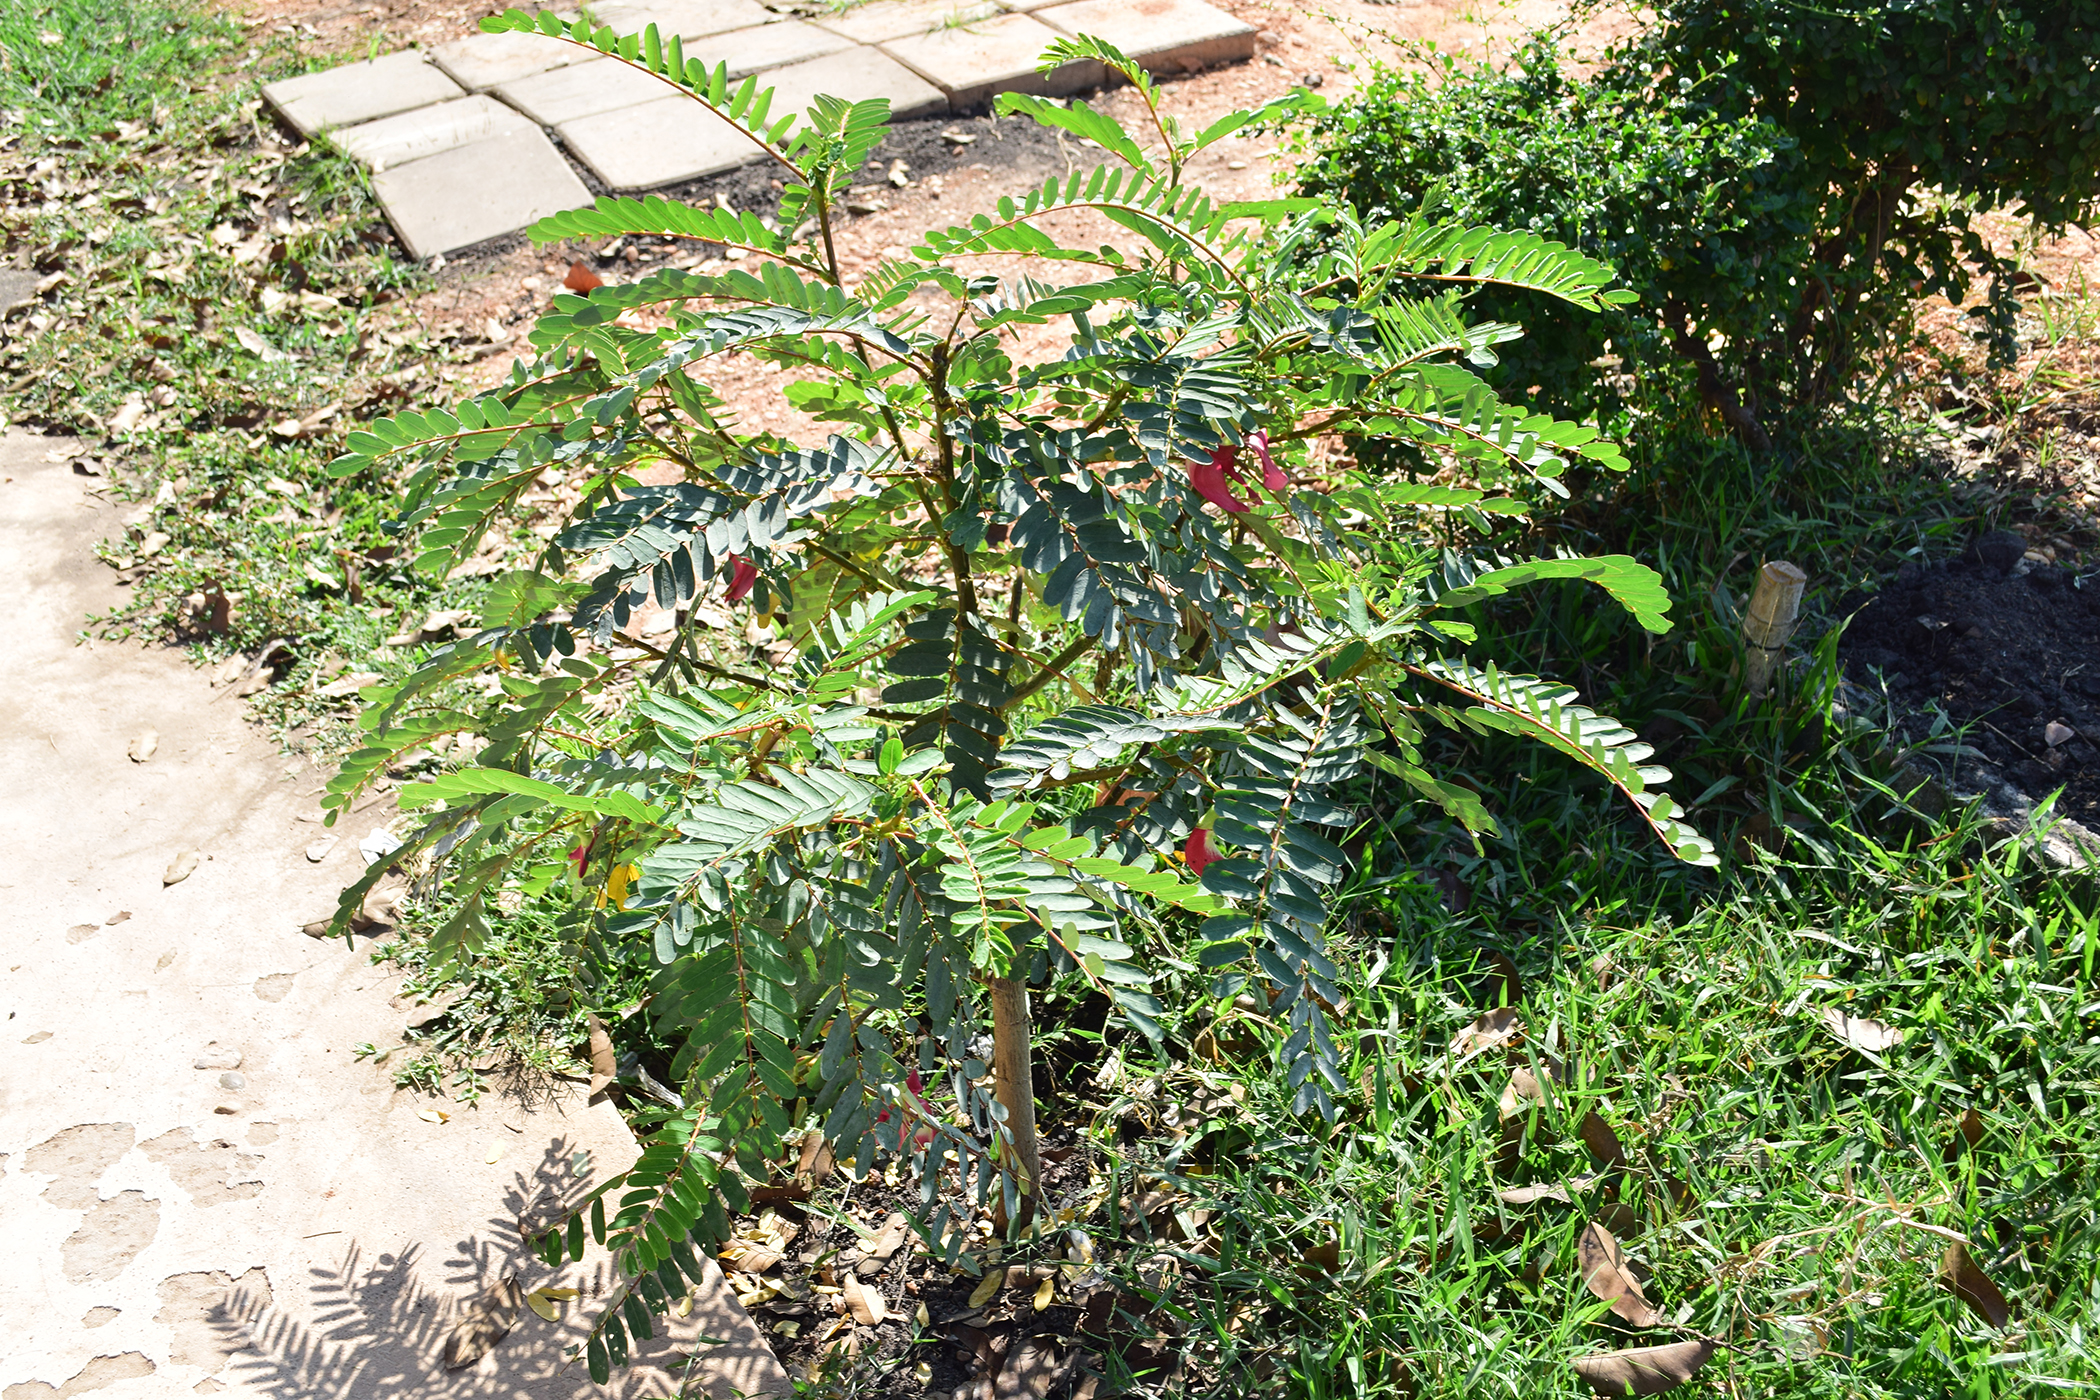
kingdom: Plantae
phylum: Tracheophyta
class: Magnoliopsida
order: Fabales
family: Fabaceae
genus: Sesbania
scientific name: Sesbania grandiflora
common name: Vegetable-hummingbird
